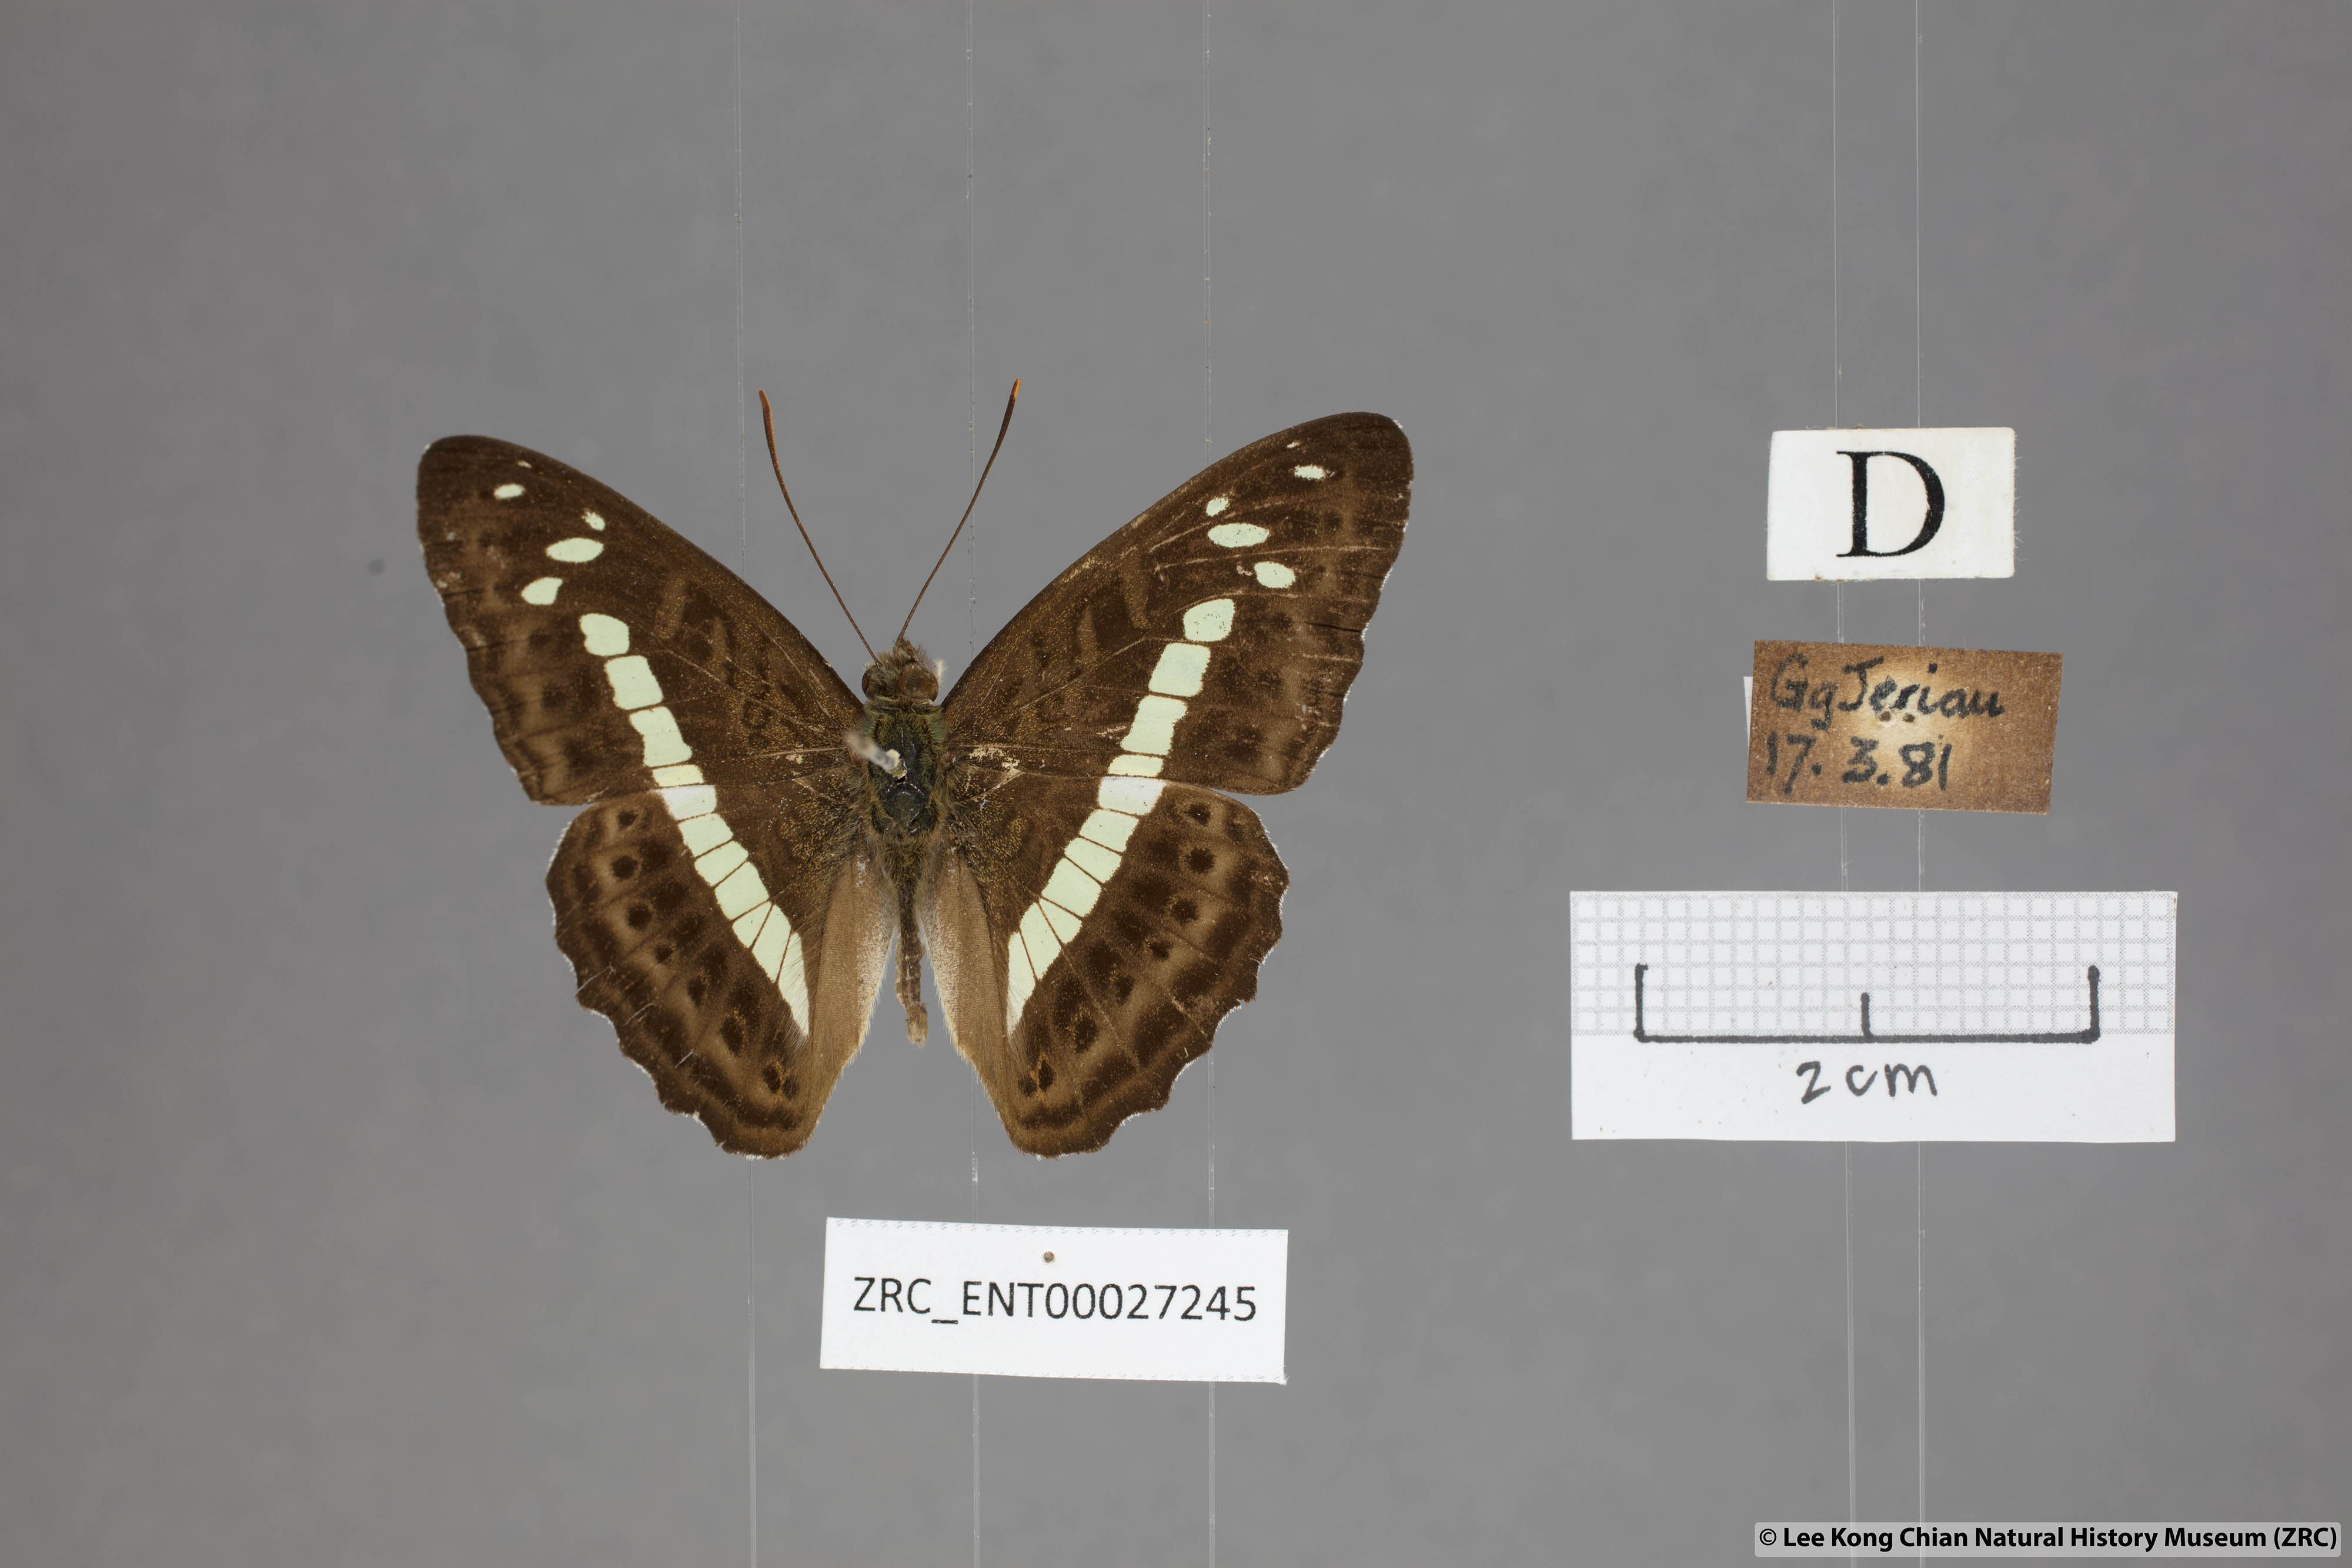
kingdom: Animalia
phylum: Arthropoda
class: Insecta
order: Lepidoptera
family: Nymphalidae
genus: Limenitis
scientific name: Limenitis
